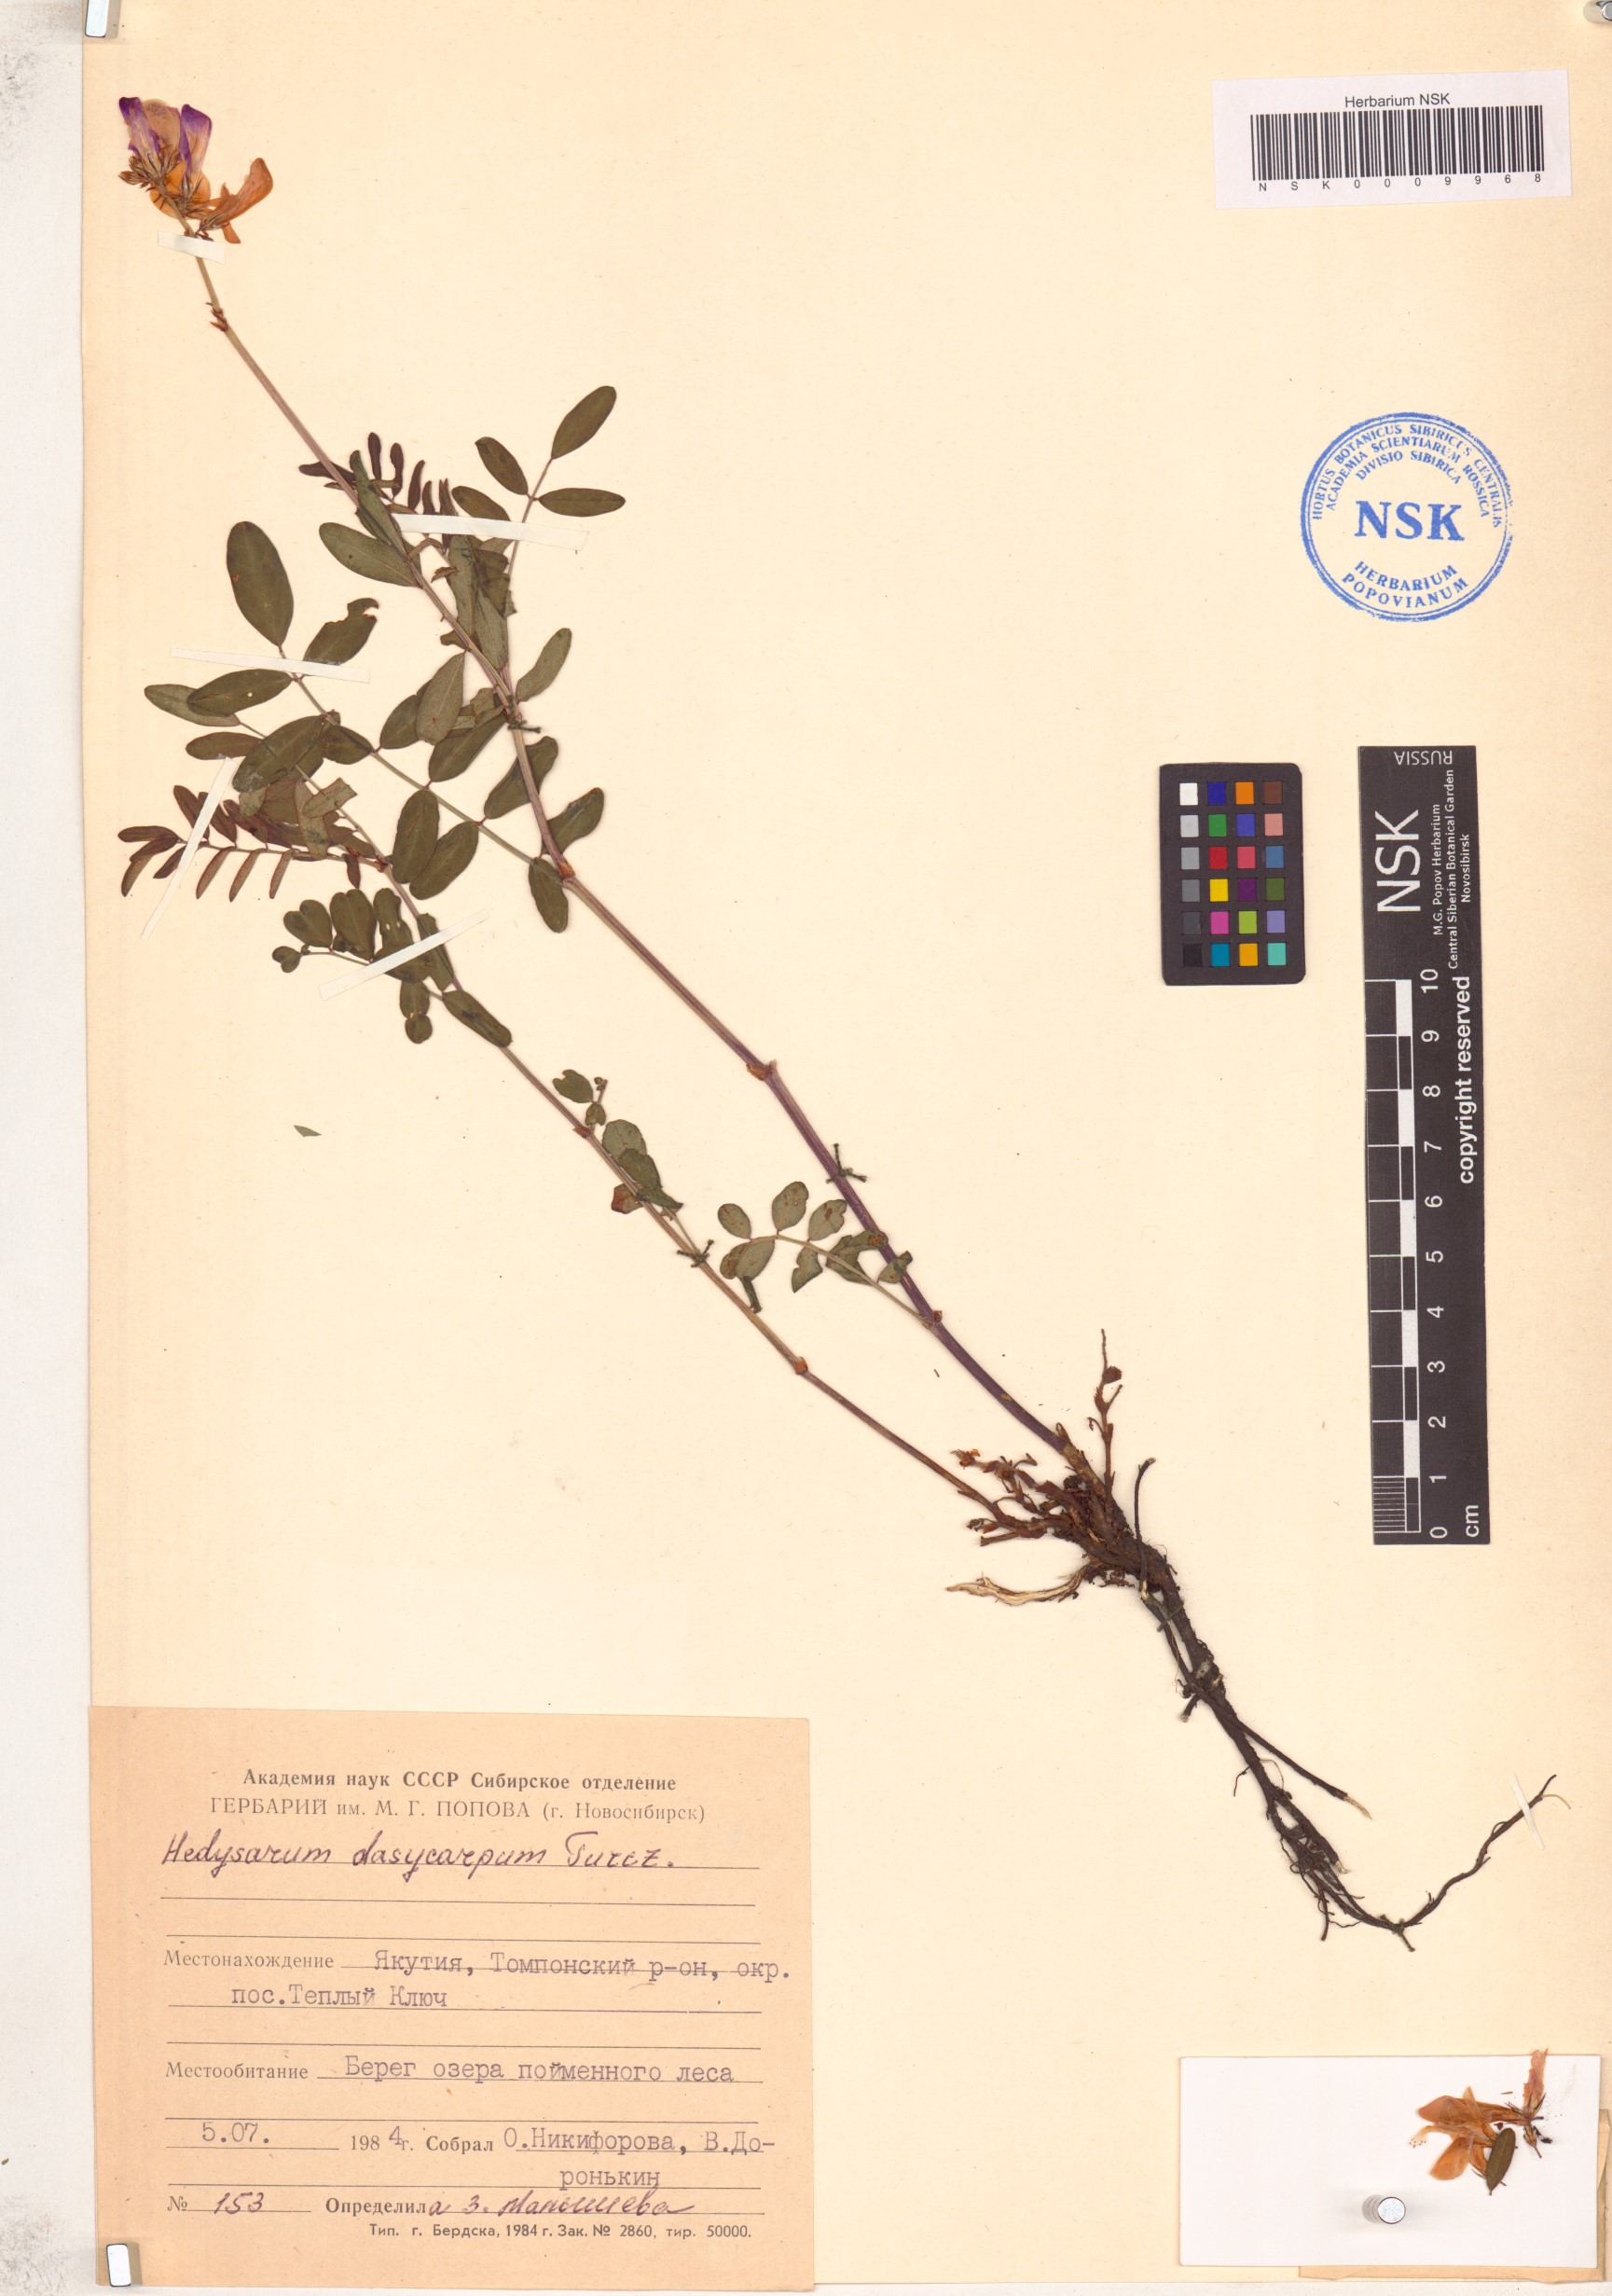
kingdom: Plantae
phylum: Tracheophyta
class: Magnoliopsida
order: Fabales
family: Fabaceae
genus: Hedysarum
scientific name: Hedysarum dasycarpum
